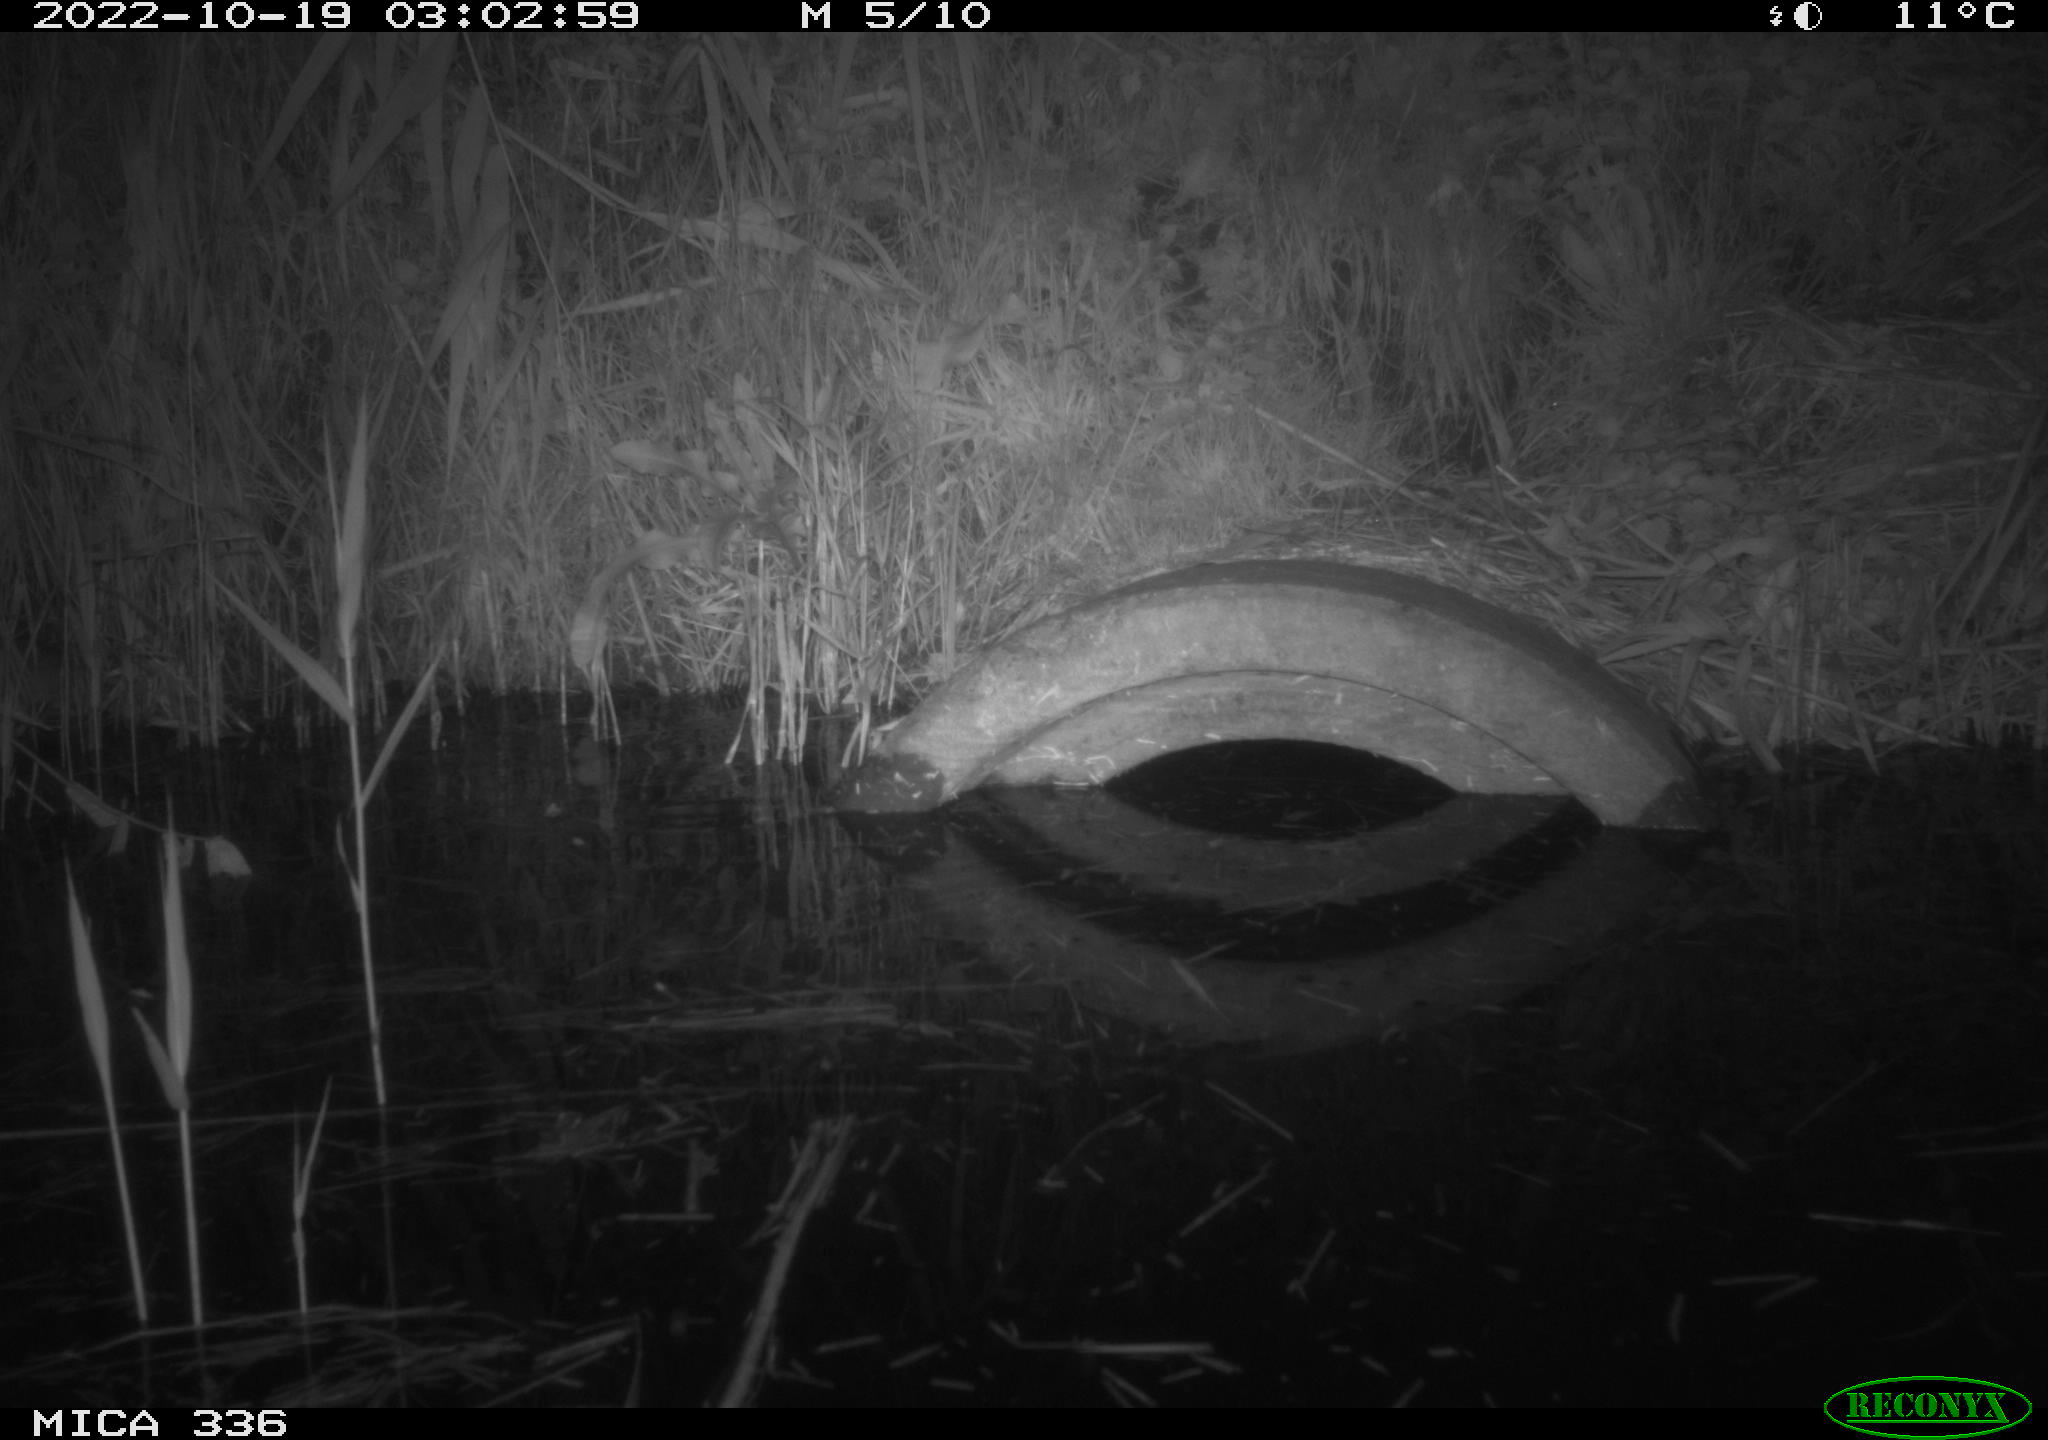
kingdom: Animalia
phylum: Chordata
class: Mammalia
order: Rodentia
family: Muridae
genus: Rattus
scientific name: Rattus norvegicus
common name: Brown rat
